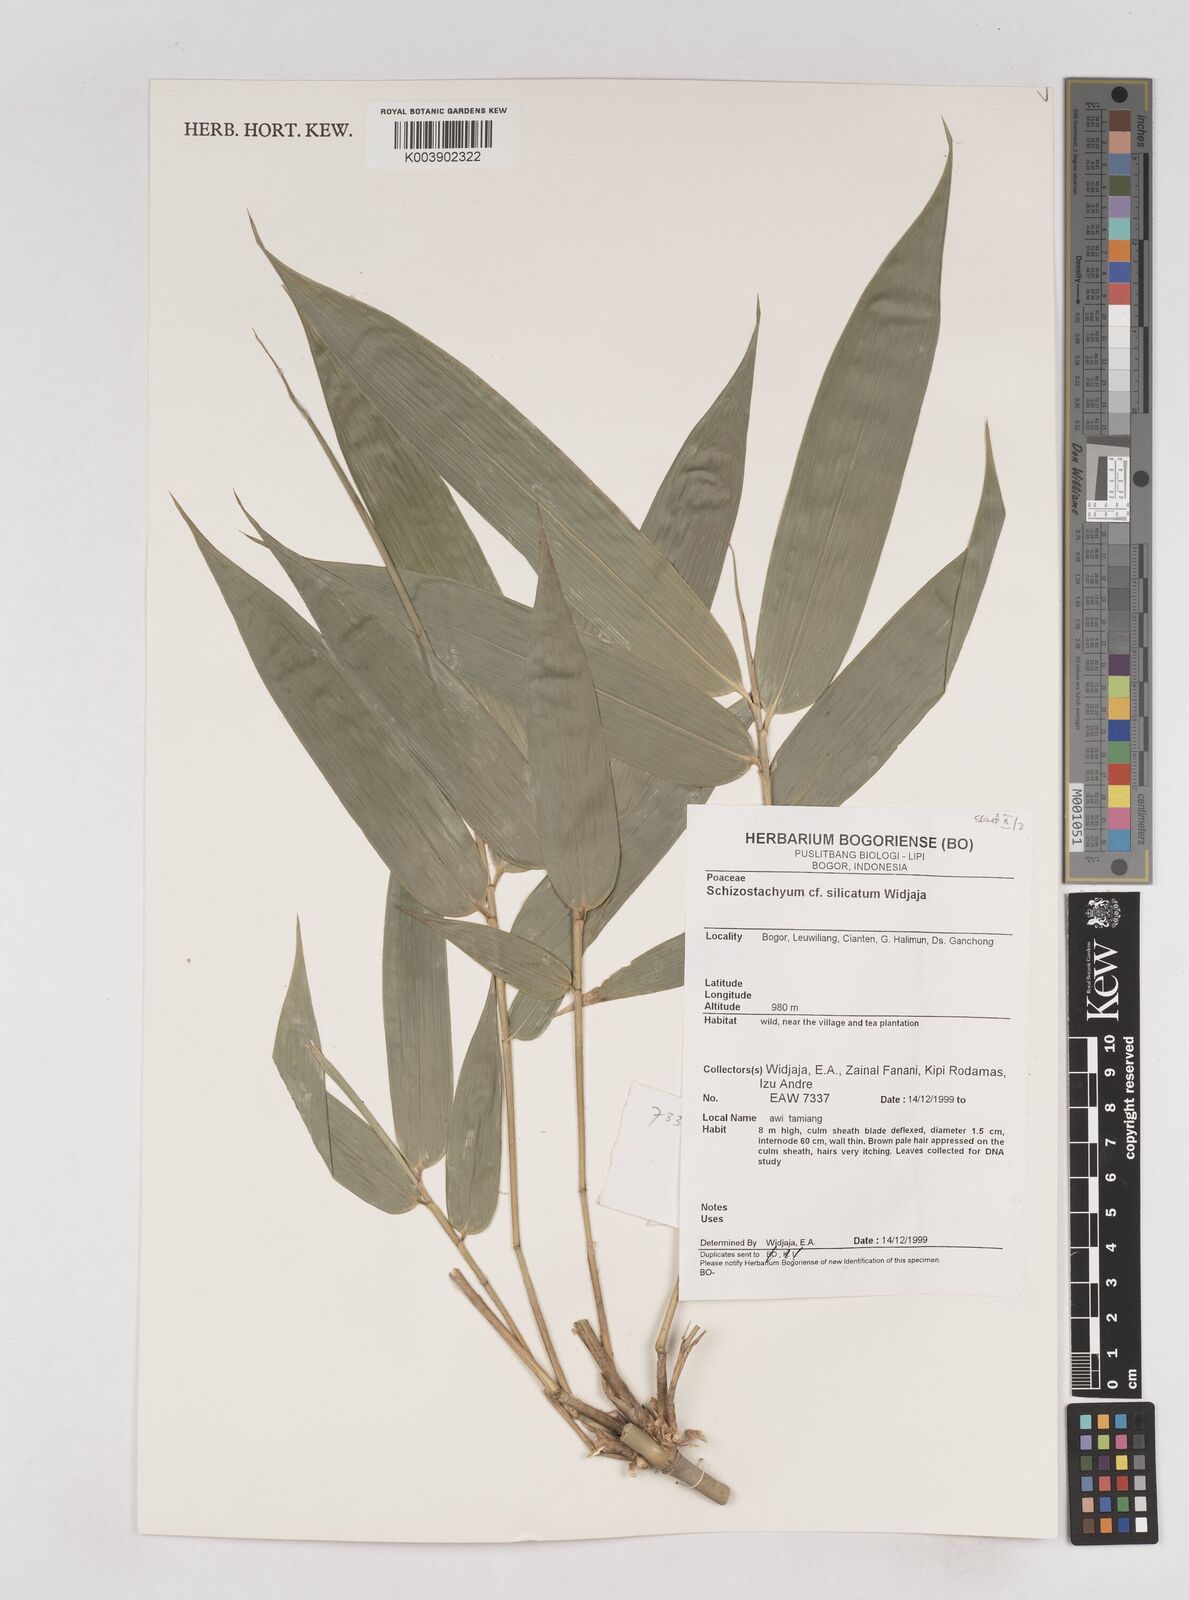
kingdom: Plantae
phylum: Tracheophyta
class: Liliopsida
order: Poales
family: Poaceae
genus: Schizostachyum
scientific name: Schizostachyum silicatum
